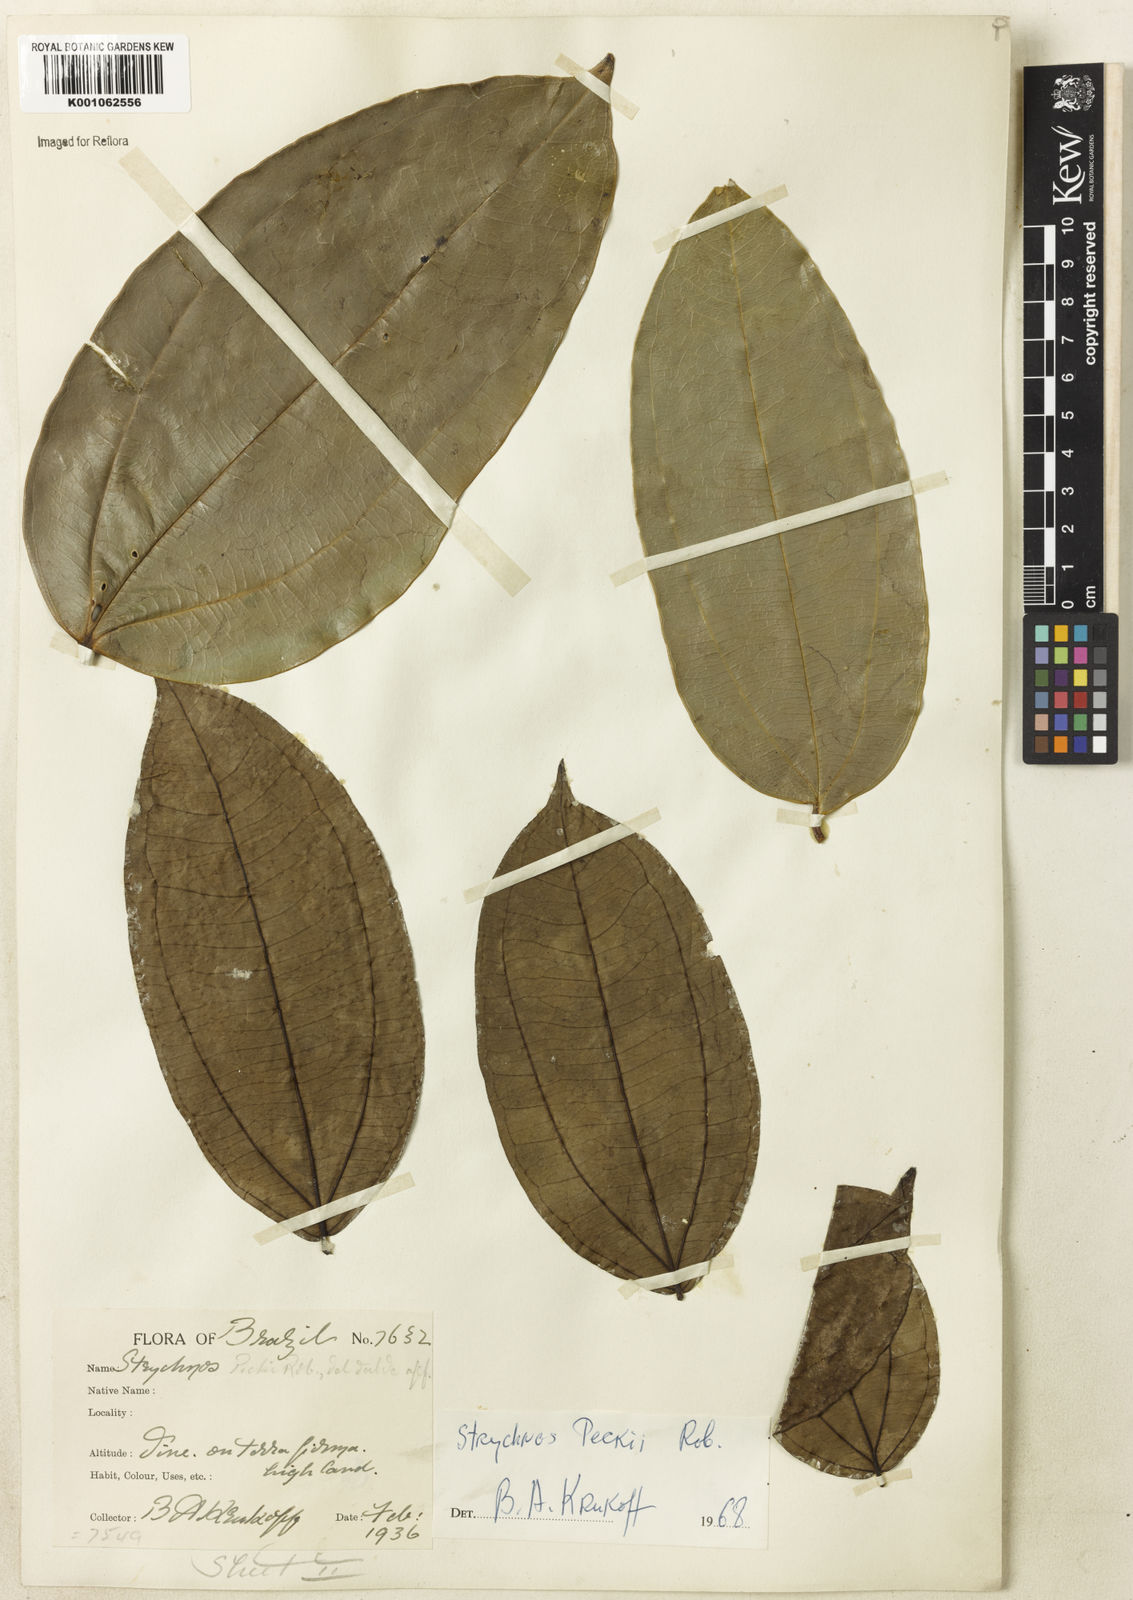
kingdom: Plantae
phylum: Tracheophyta
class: Magnoliopsida
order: Gentianales
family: Loganiaceae
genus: Strychnos
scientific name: Strychnos peckii
